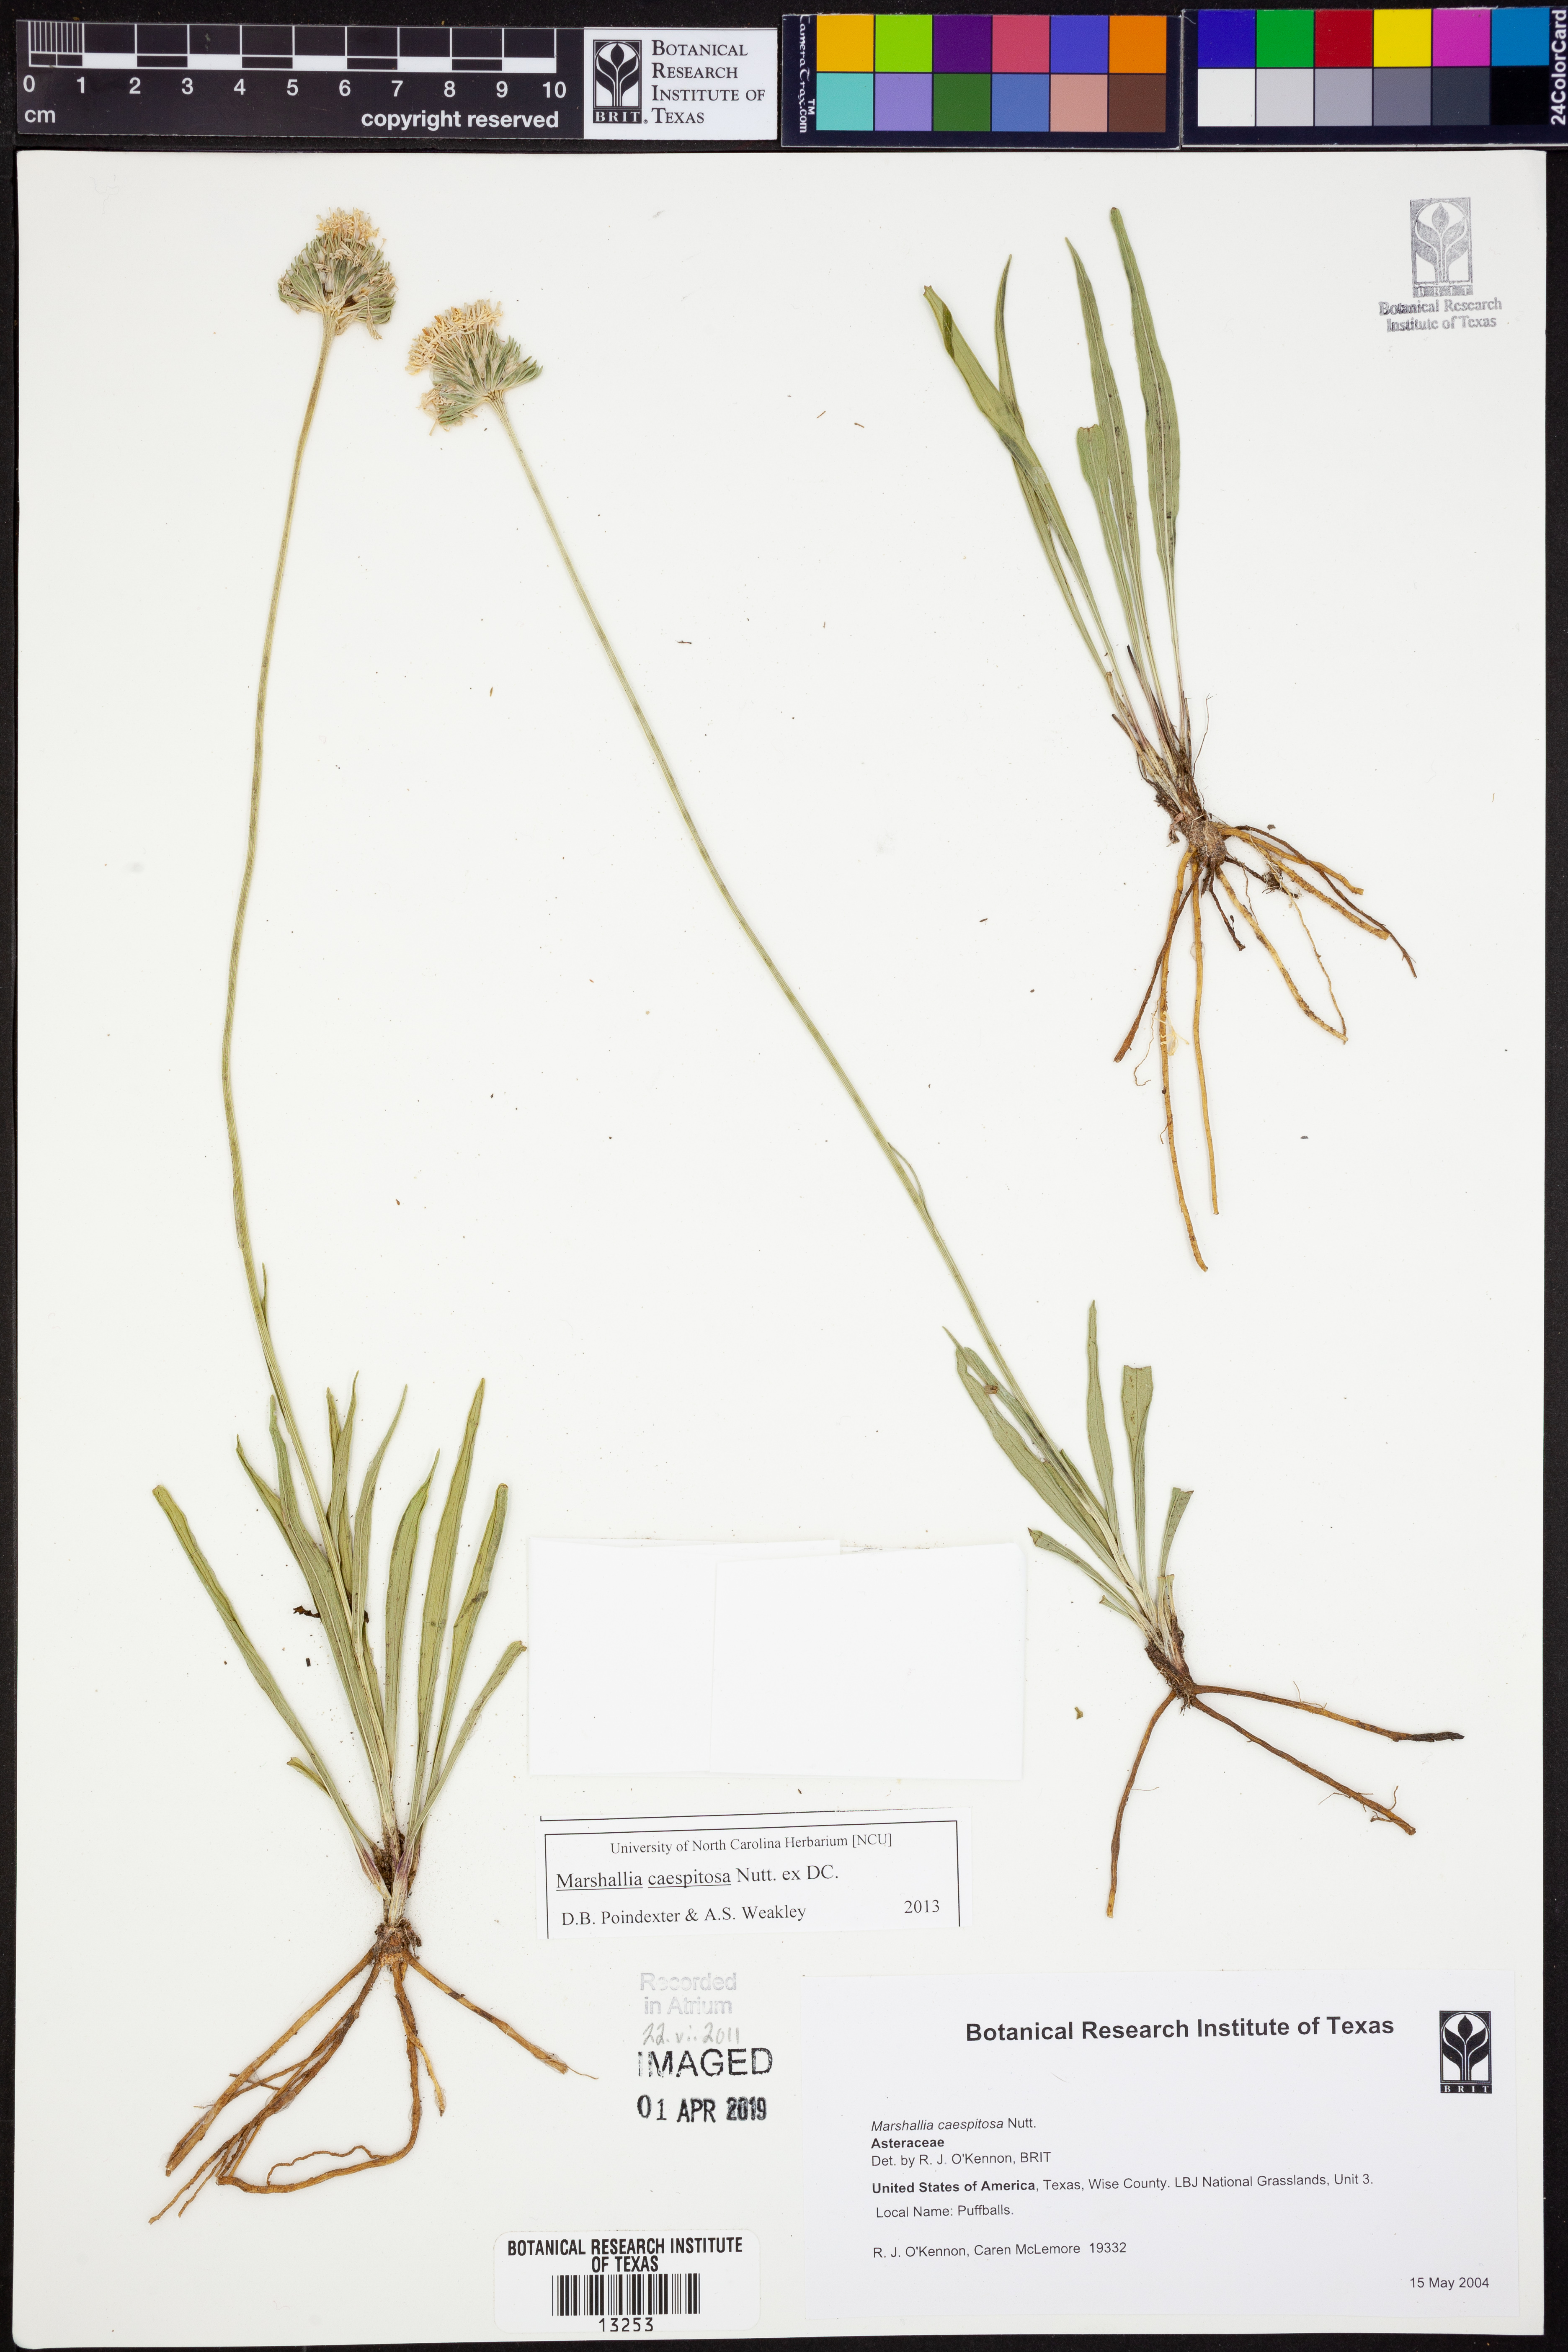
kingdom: Plantae
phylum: Tracheophyta
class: Magnoliopsida
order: Asterales
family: Asteraceae
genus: Marshallia
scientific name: Marshallia caespitosa
